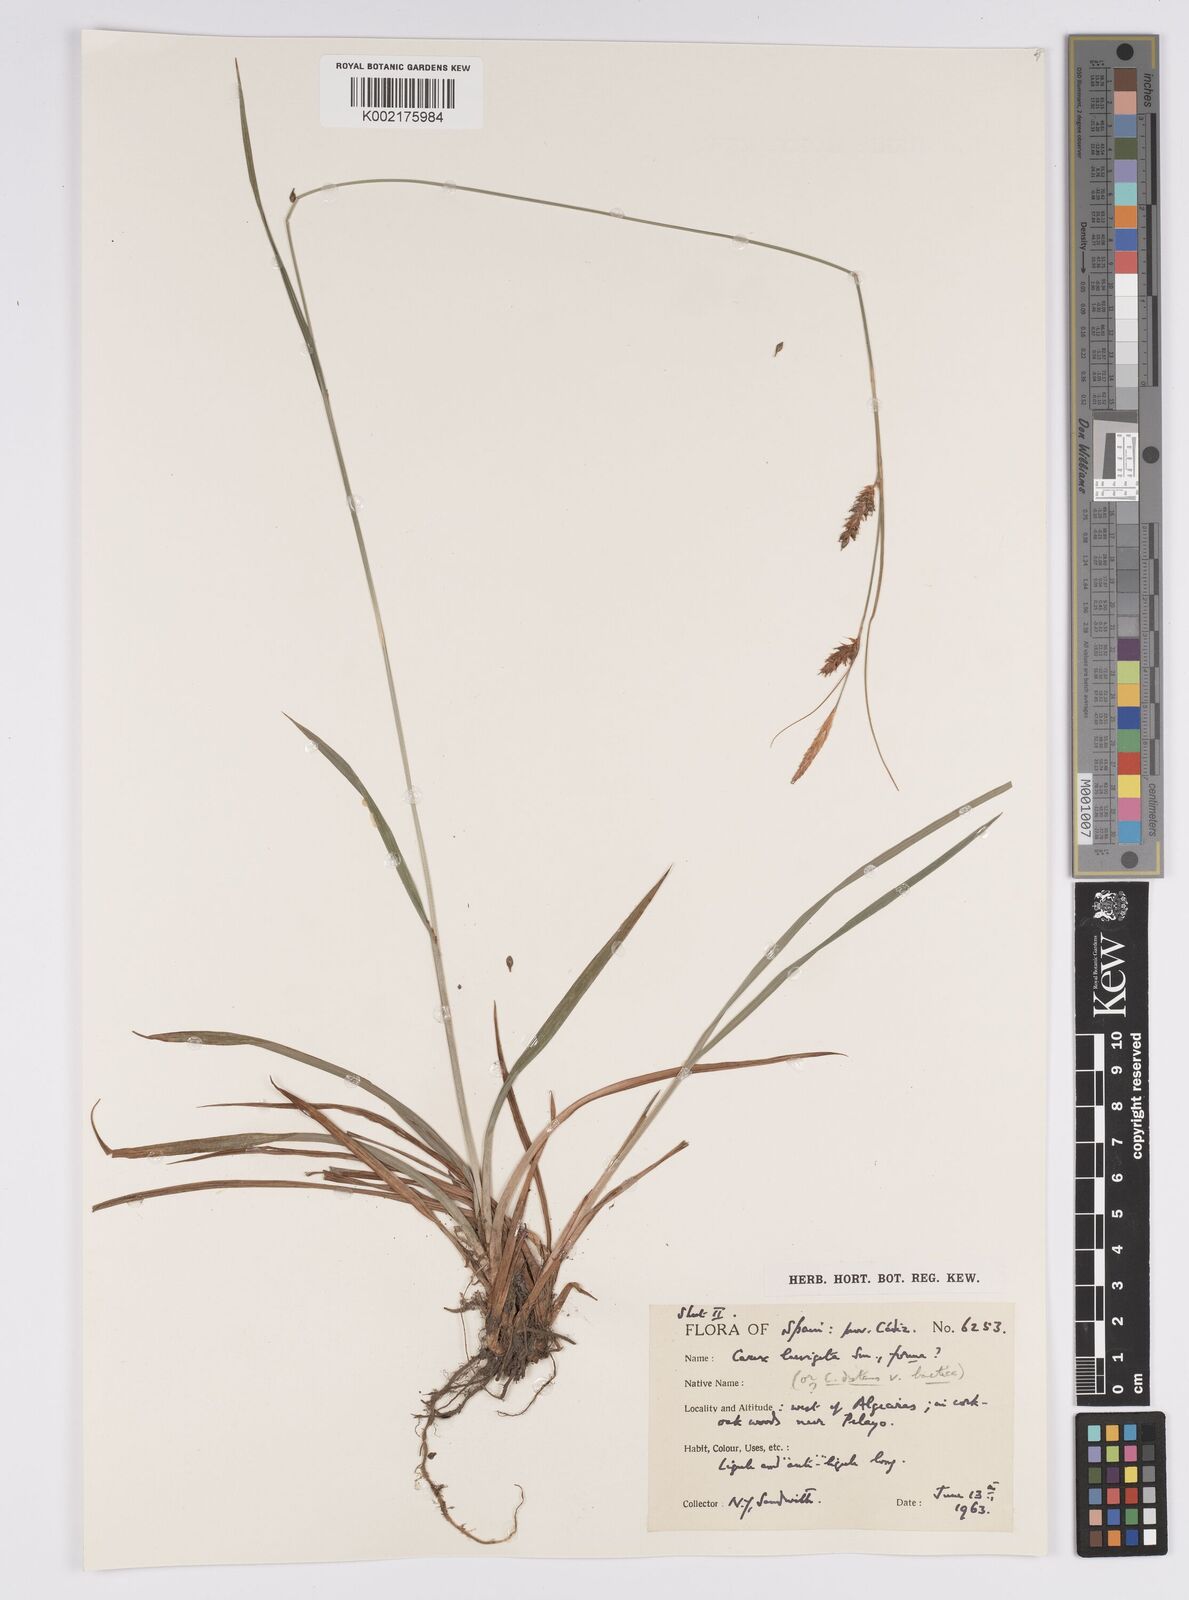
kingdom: Plantae
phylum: Tracheophyta
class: Liliopsida
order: Poales
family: Cyperaceae
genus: Carex
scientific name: Carex laevigata
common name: Smooth-stalked sedge
